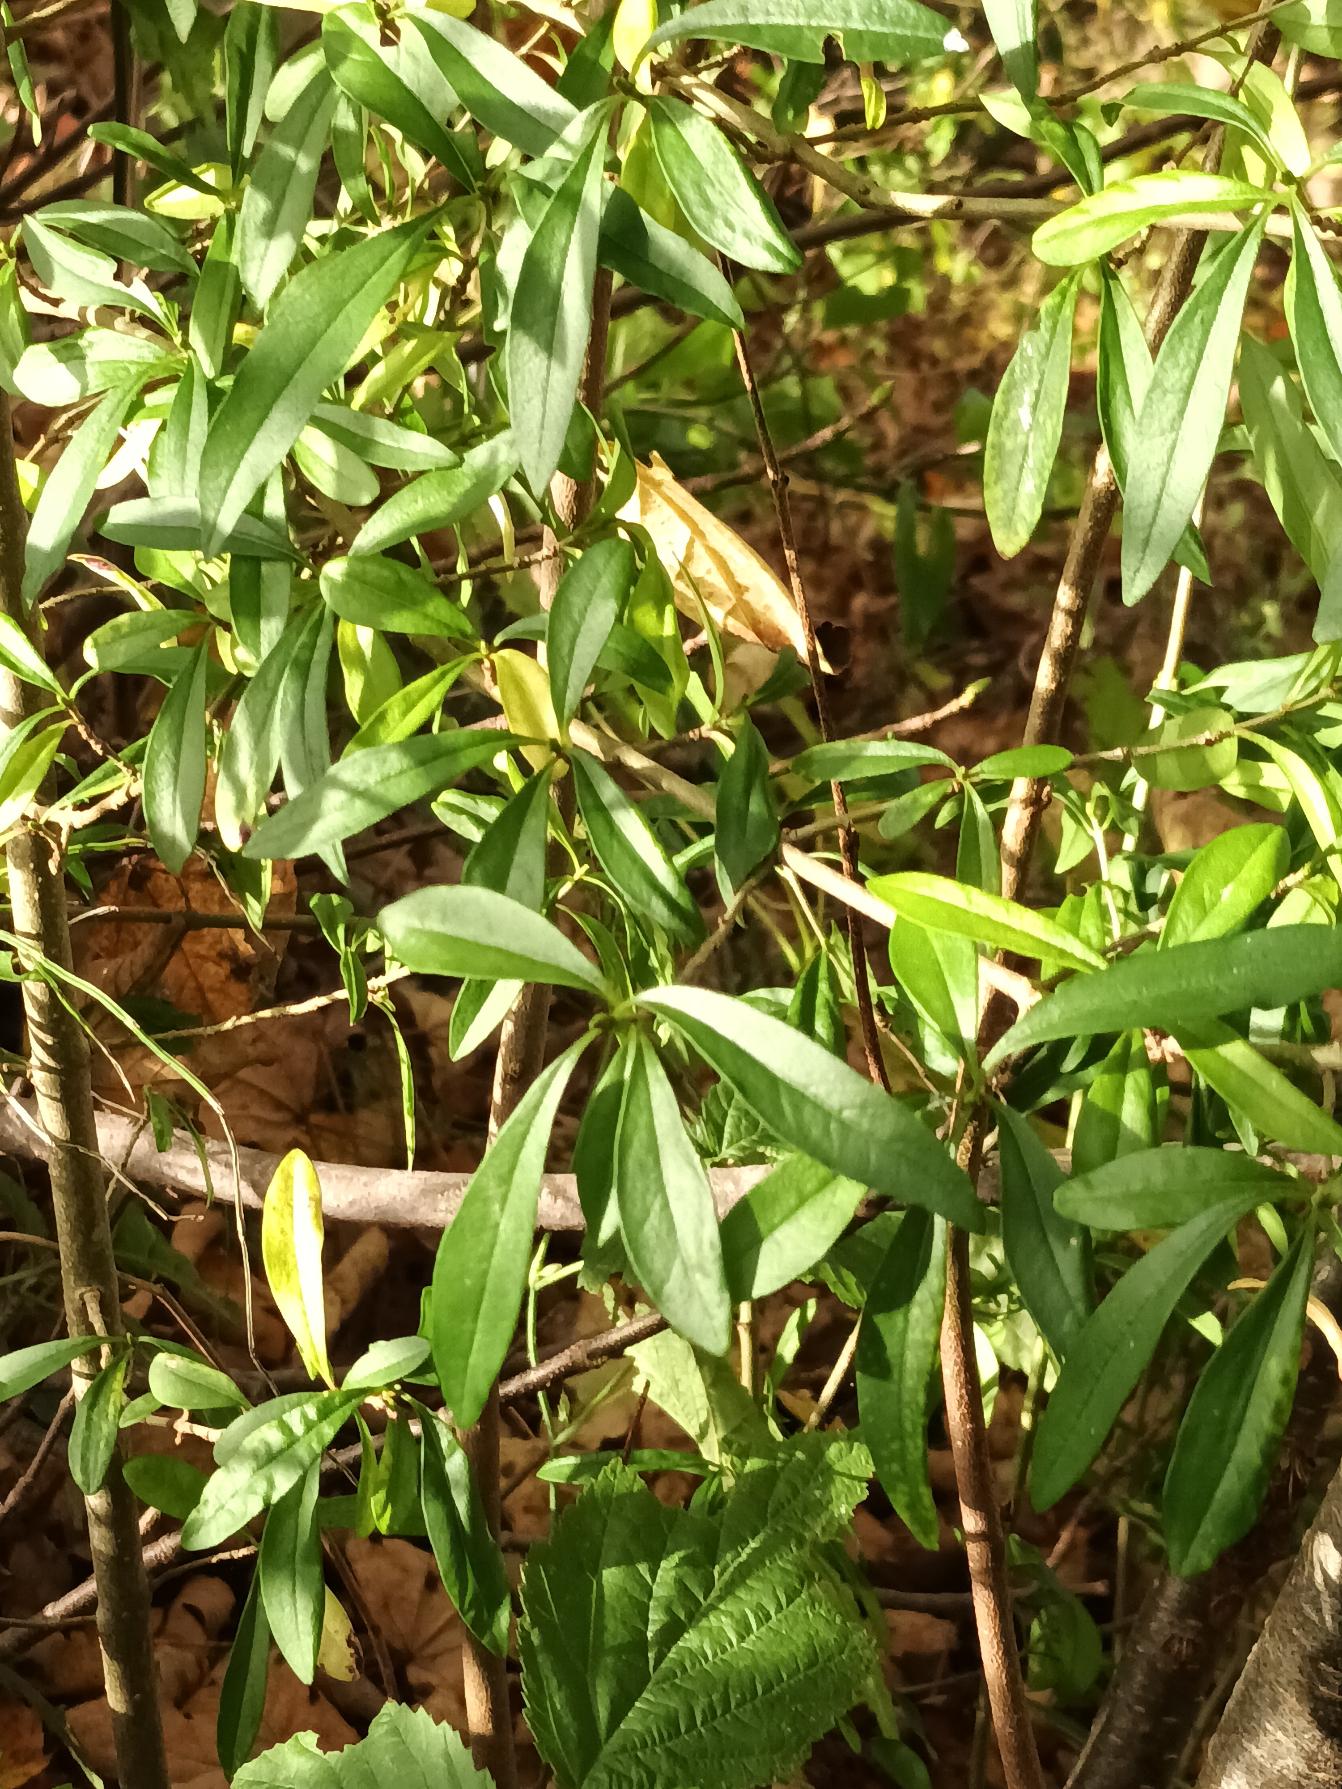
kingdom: Plantae
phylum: Tracheophyta
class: Magnoliopsida
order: Lamiales
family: Oleaceae
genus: Ligustrum
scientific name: Ligustrum vulgare
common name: Liguster
